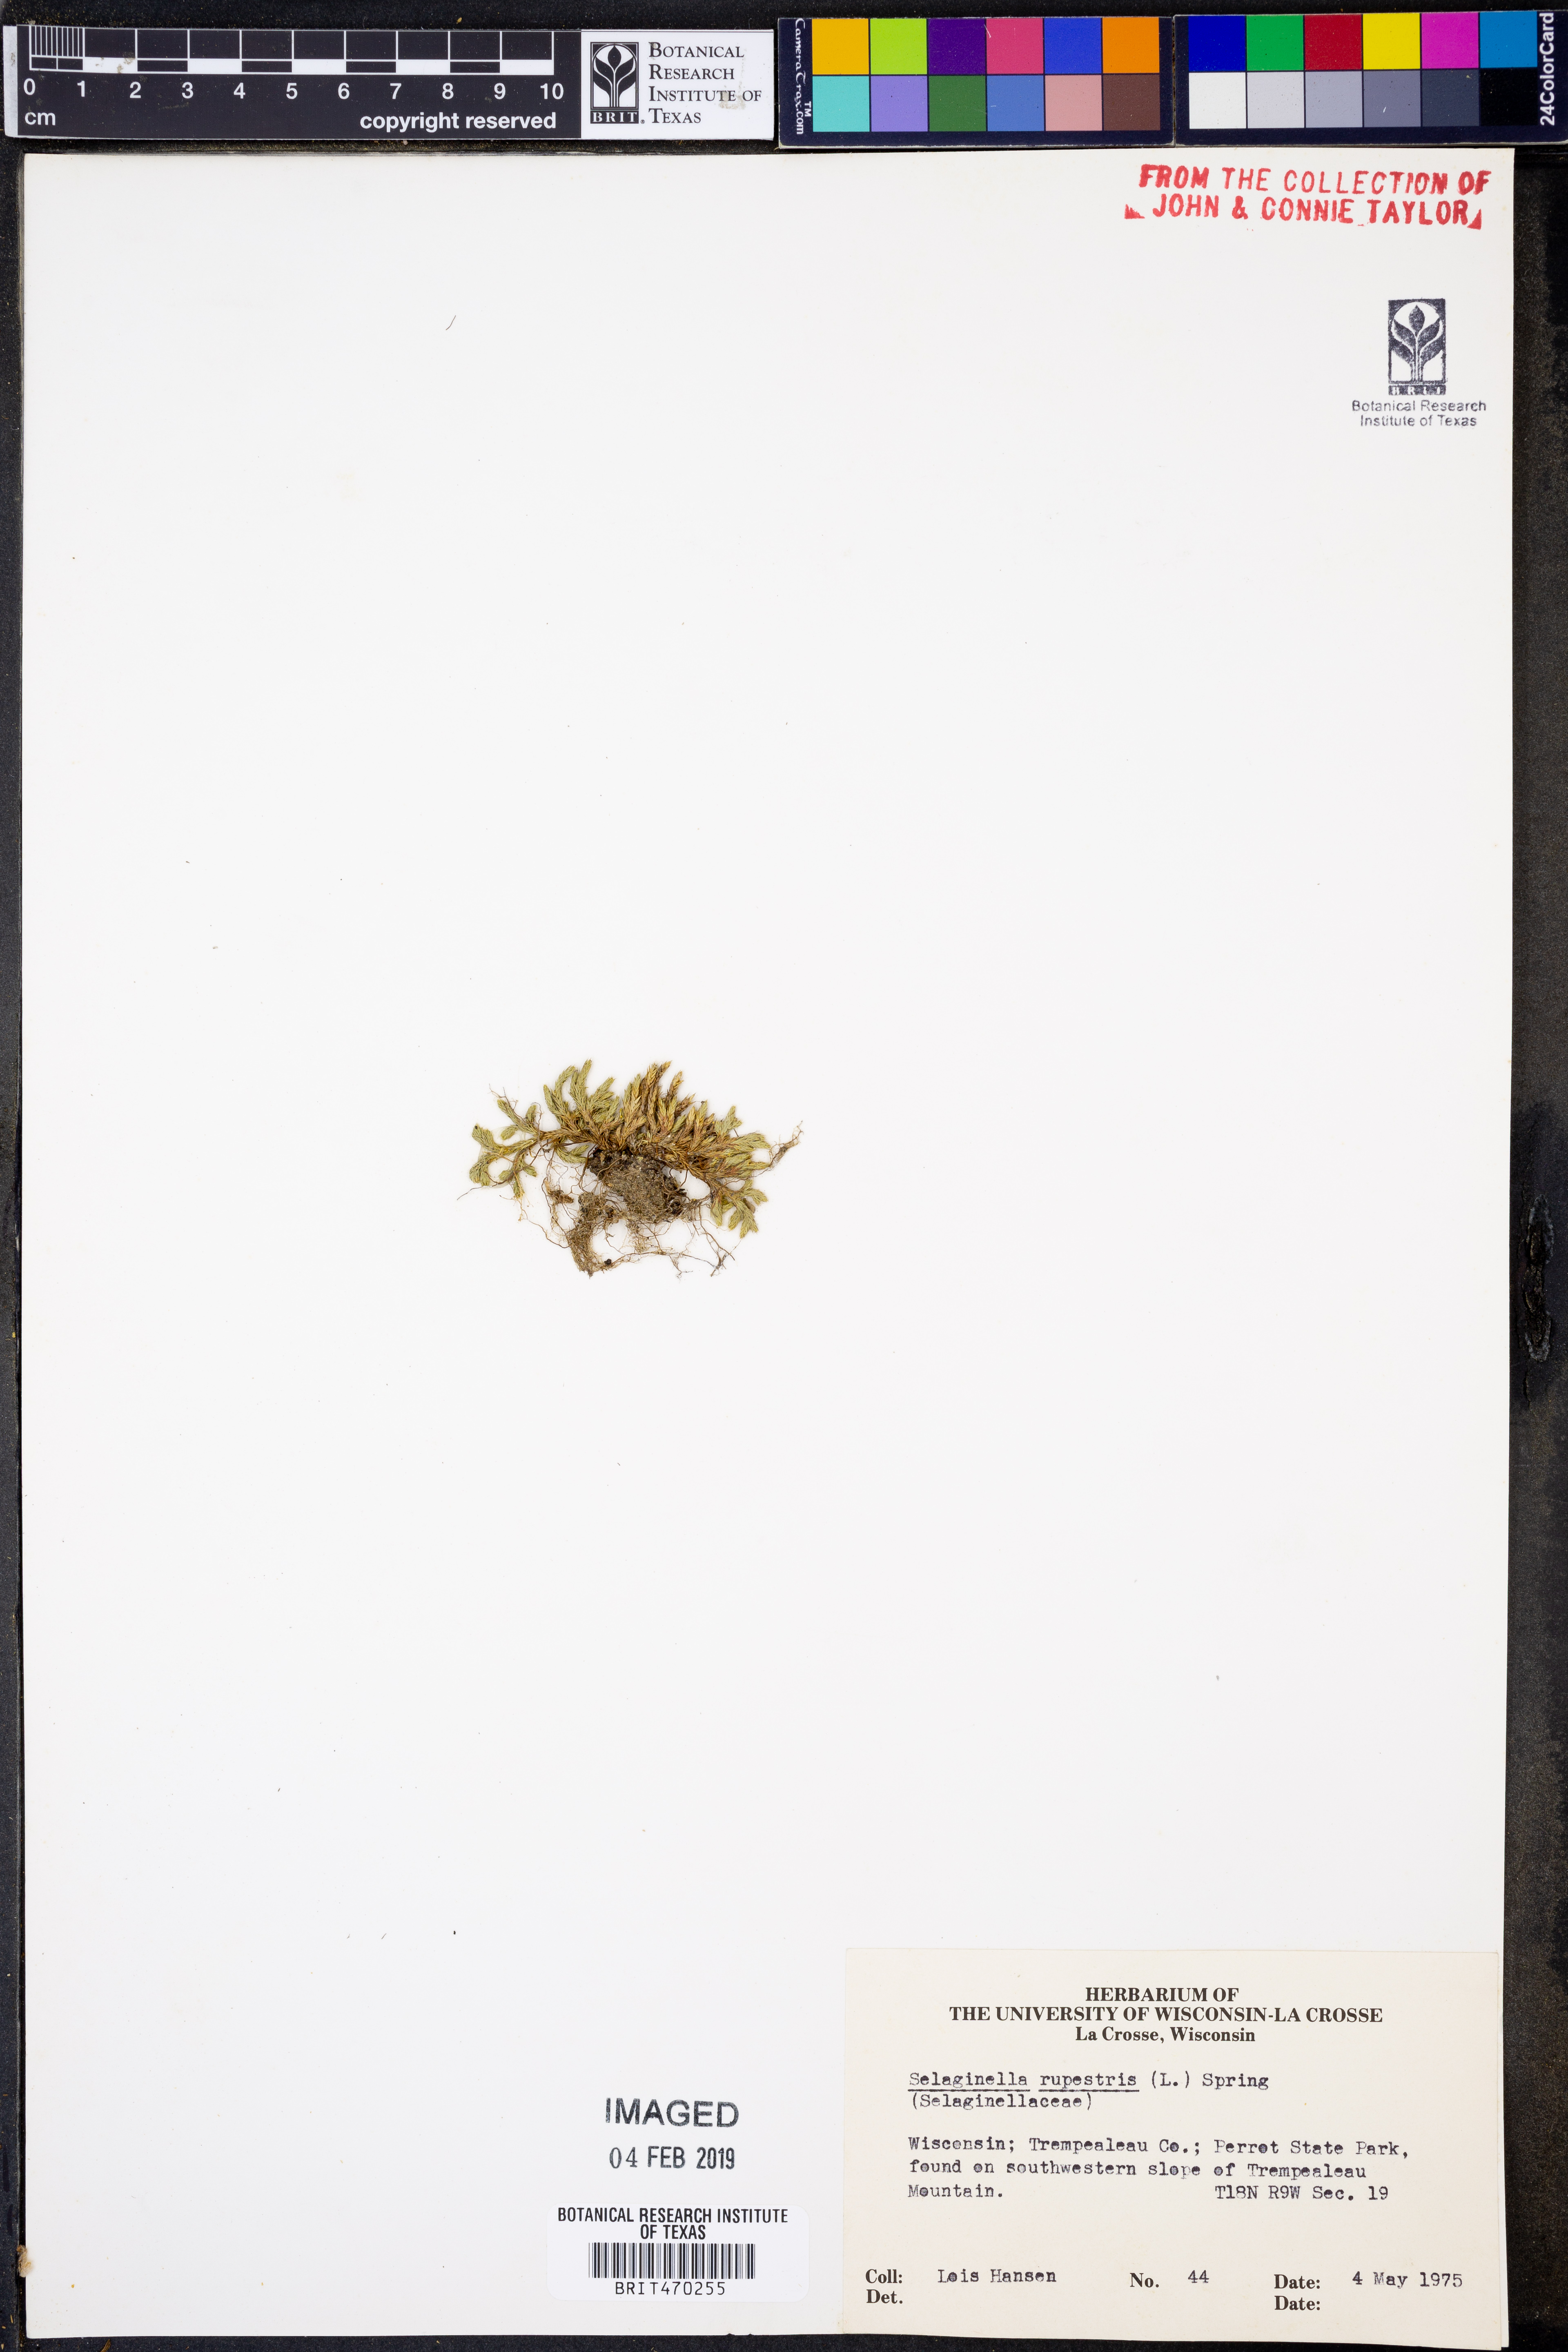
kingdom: Plantae
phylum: Tracheophyta
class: Lycopodiopsida
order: Selaginellales
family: Selaginellaceae
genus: Selaginella
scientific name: Selaginella rupestris
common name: Dwarf spikemoss
